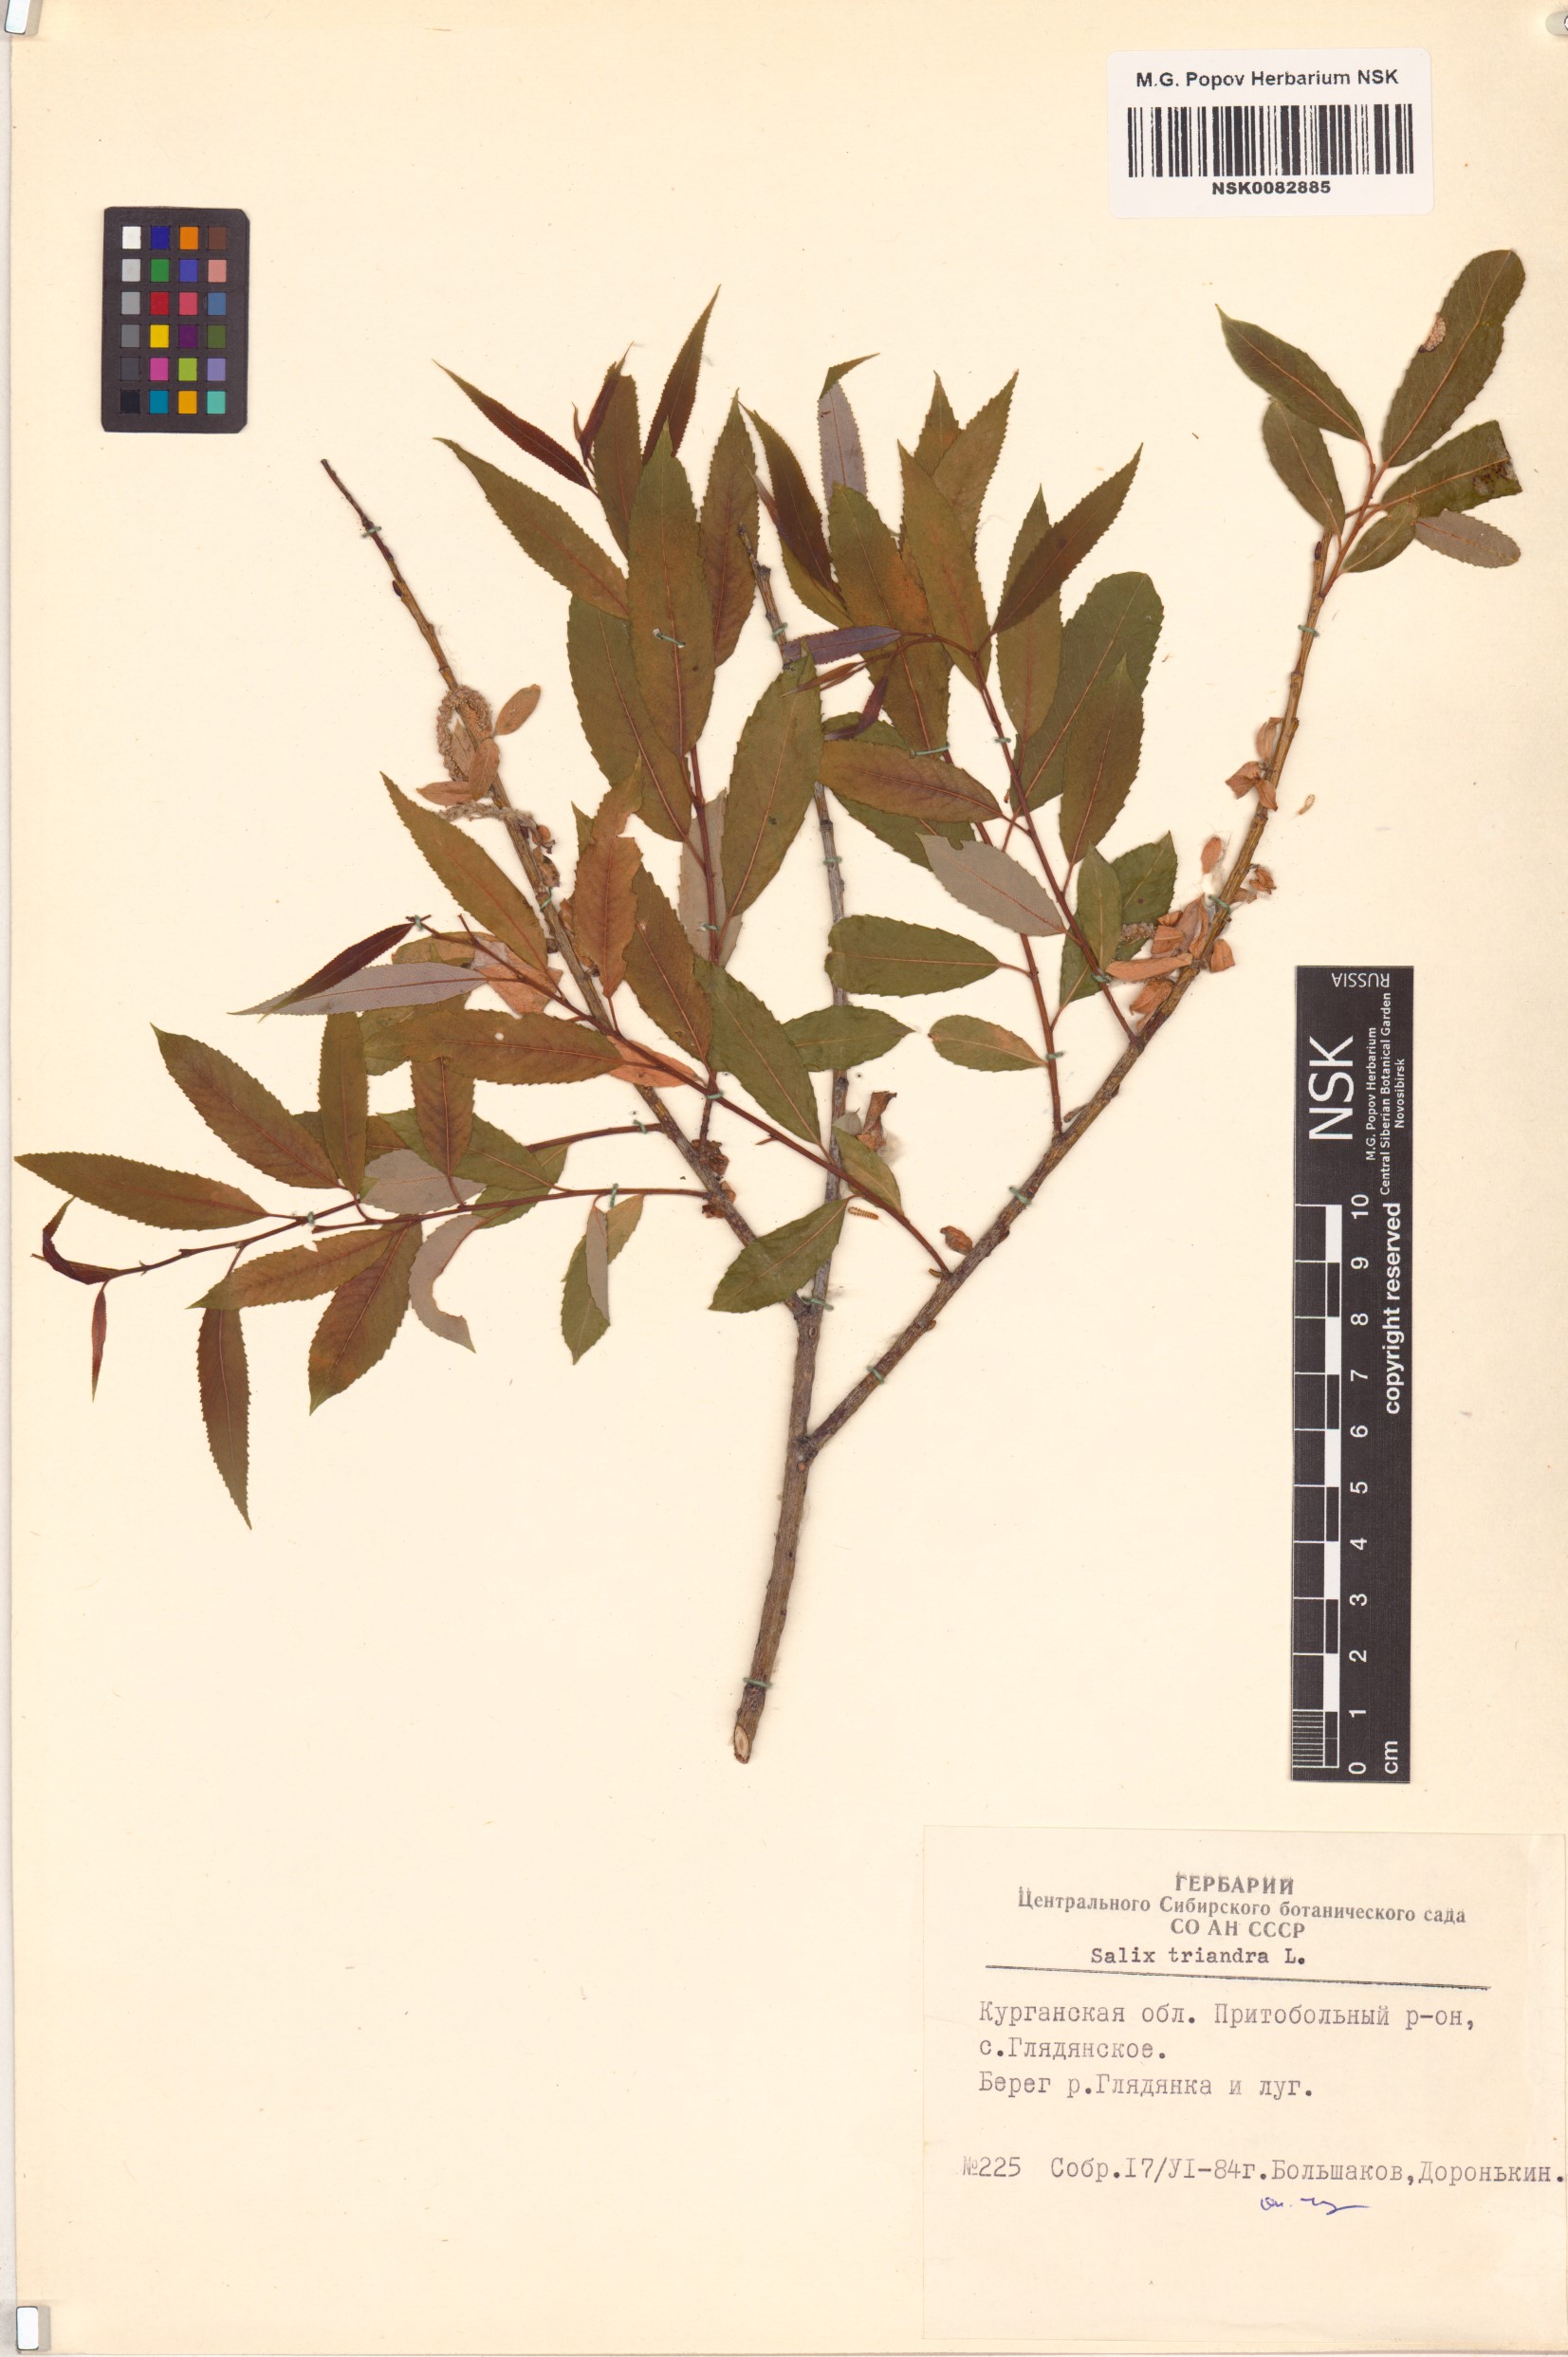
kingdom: Plantae
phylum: Tracheophyta
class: Magnoliopsida
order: Malpighiales
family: Salicaceae
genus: Salix
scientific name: Salix triandra
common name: Almond willow
